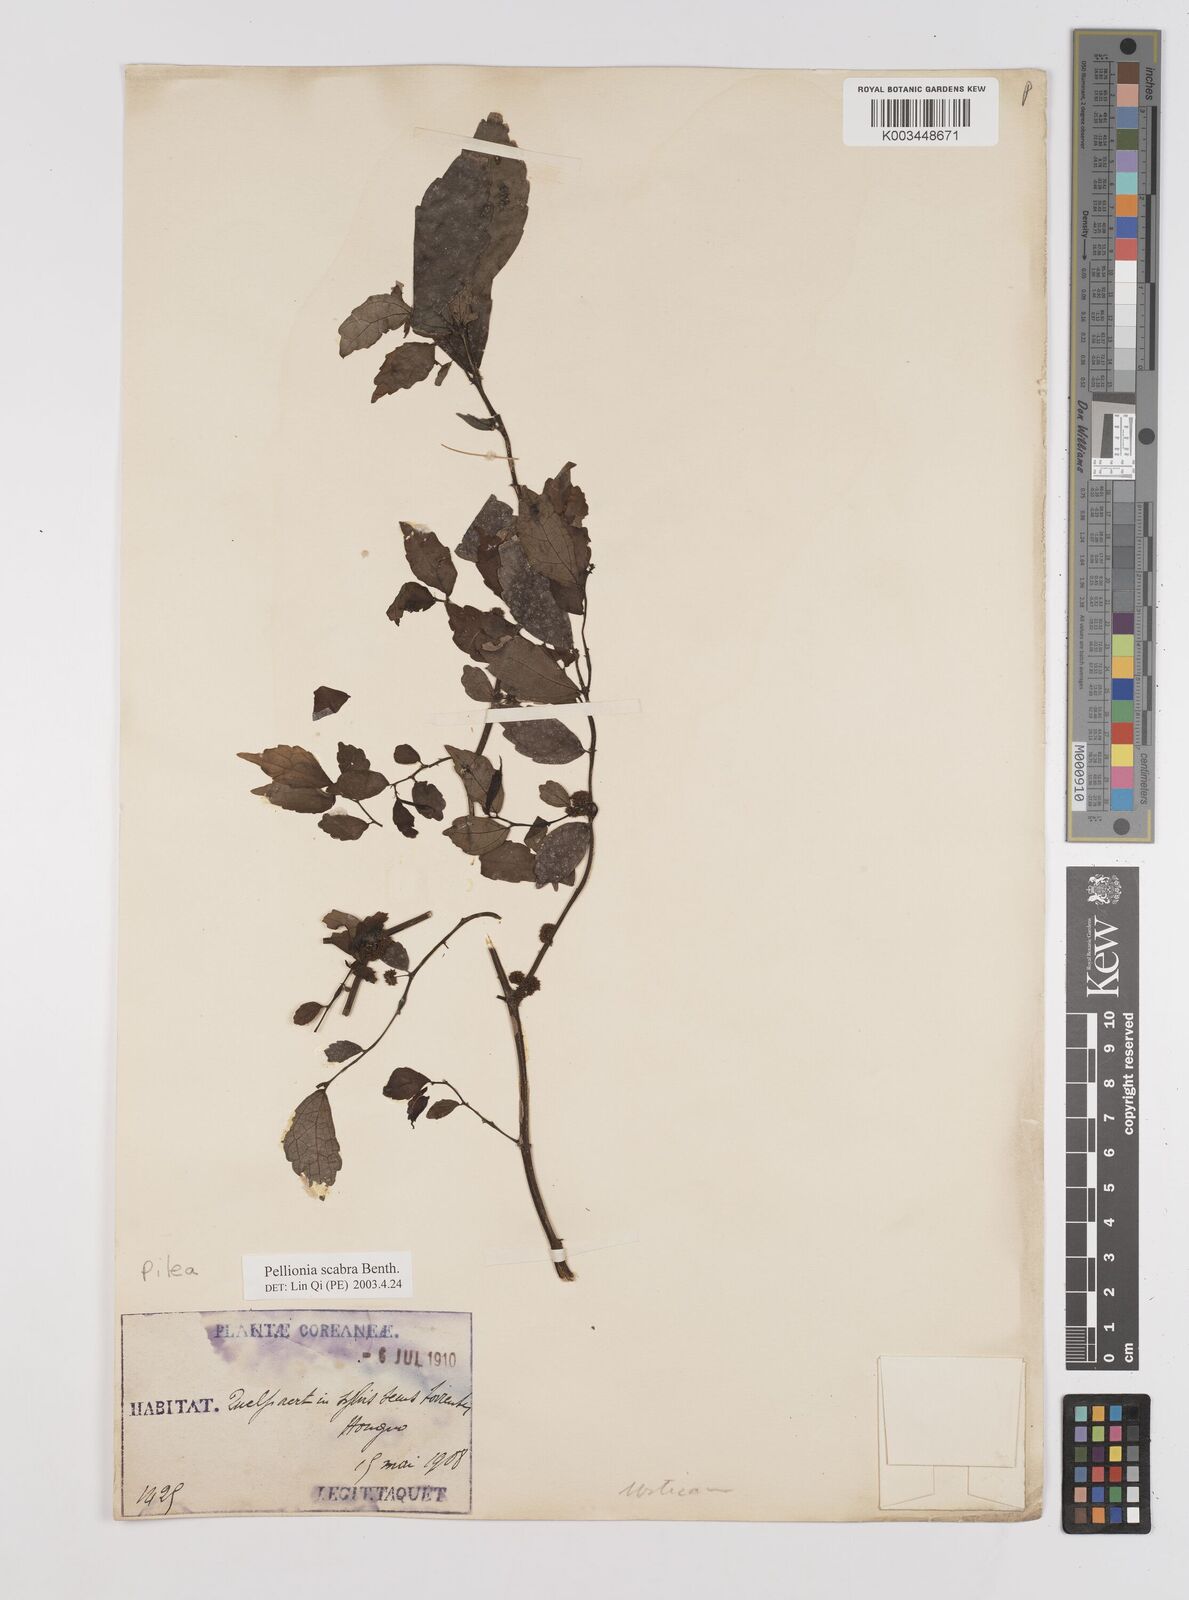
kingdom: Plantae
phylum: Tracheophyta
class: Magnoliopsida
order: Rosales
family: Urticaceae
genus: Elatostema
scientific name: Elatostema scabrum
